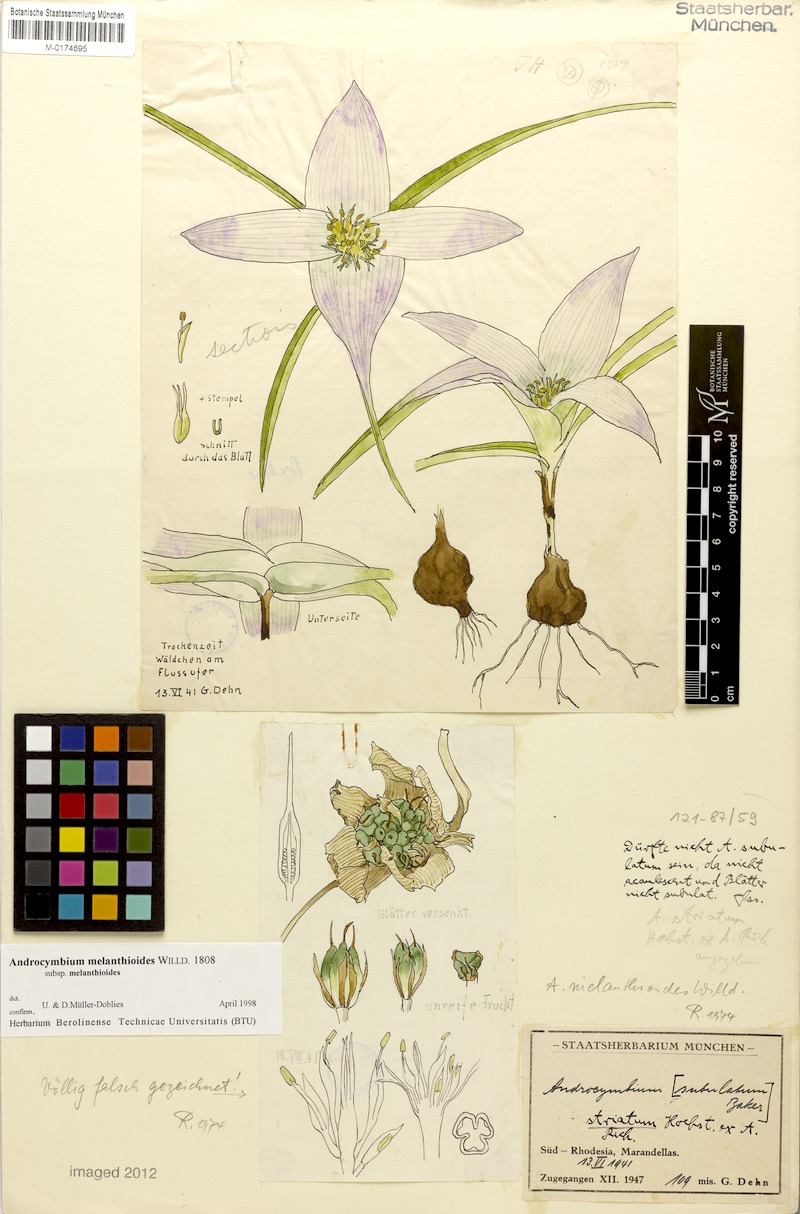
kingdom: Plantae
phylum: Tracheophyta
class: Liliopsida
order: Liliales
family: Colchicaceae
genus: Colchicum
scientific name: Colchicum melanthioides
